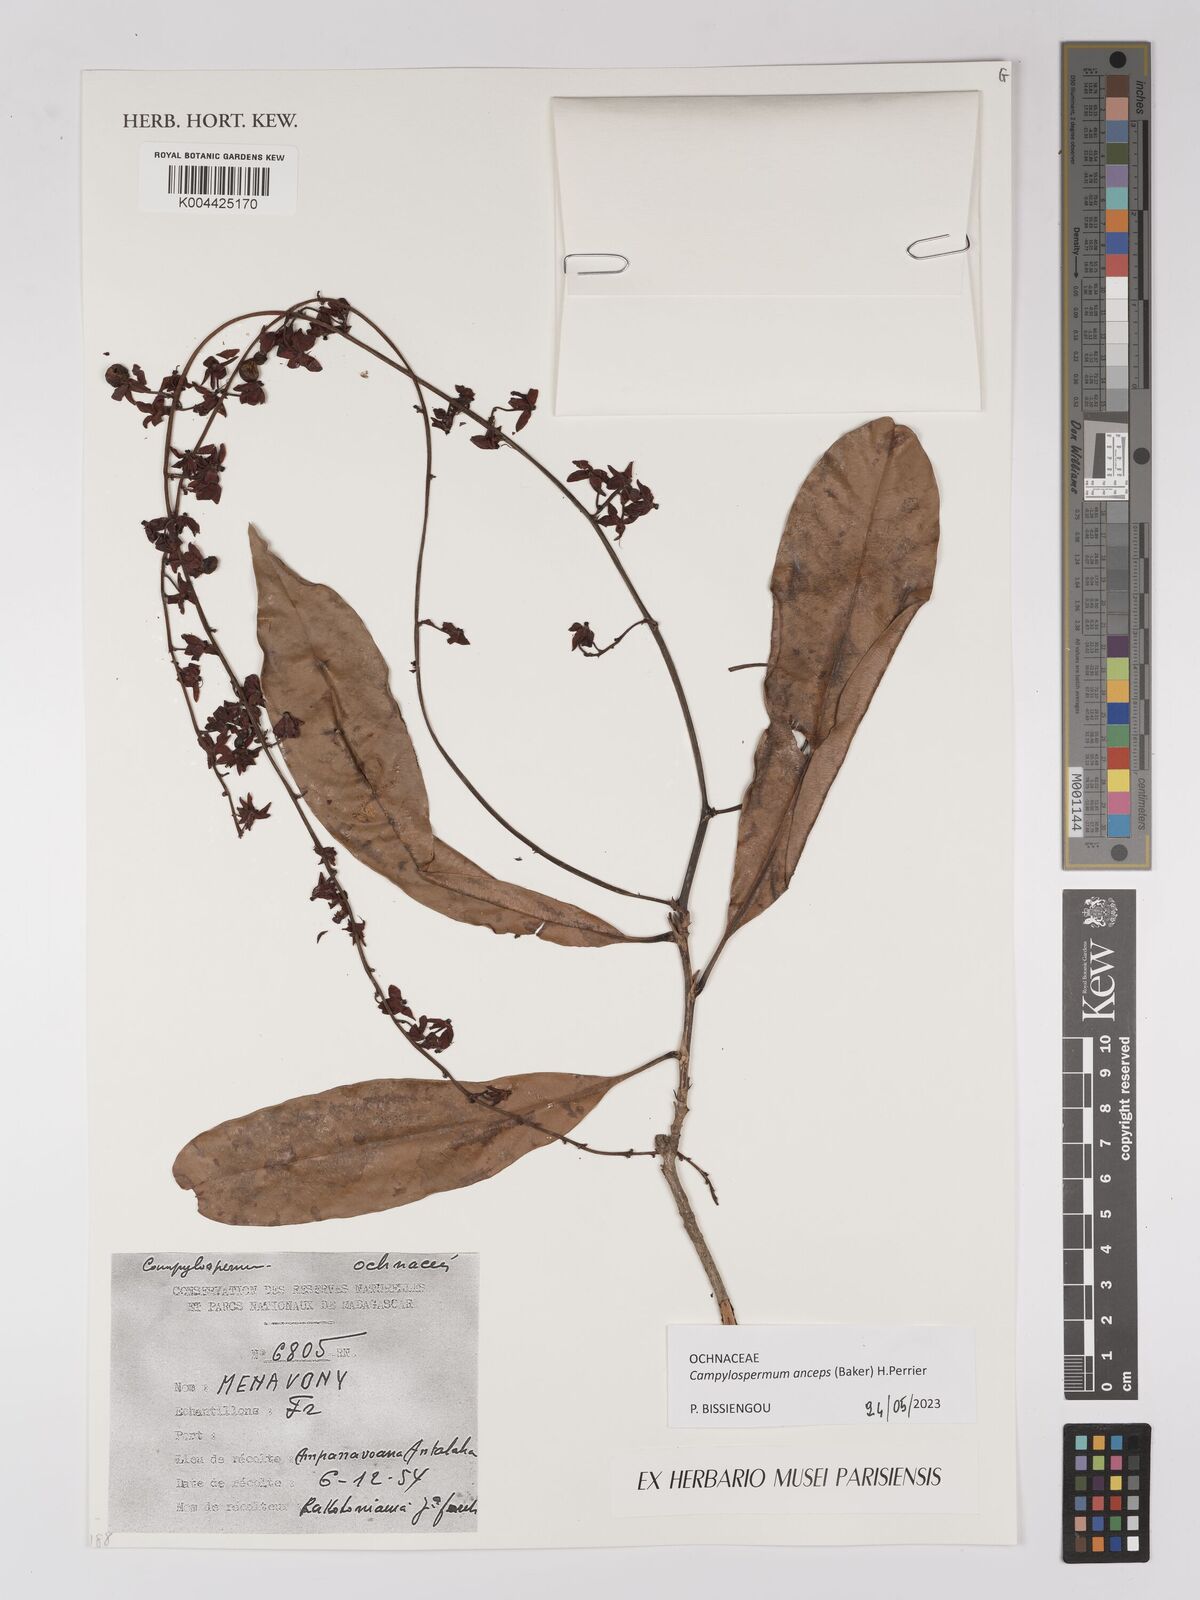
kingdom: Plantae
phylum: Tracheophyta
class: Magnoliopsida
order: Malpighiales
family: Ochnaceae
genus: Campylospermum
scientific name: Campylospermum
